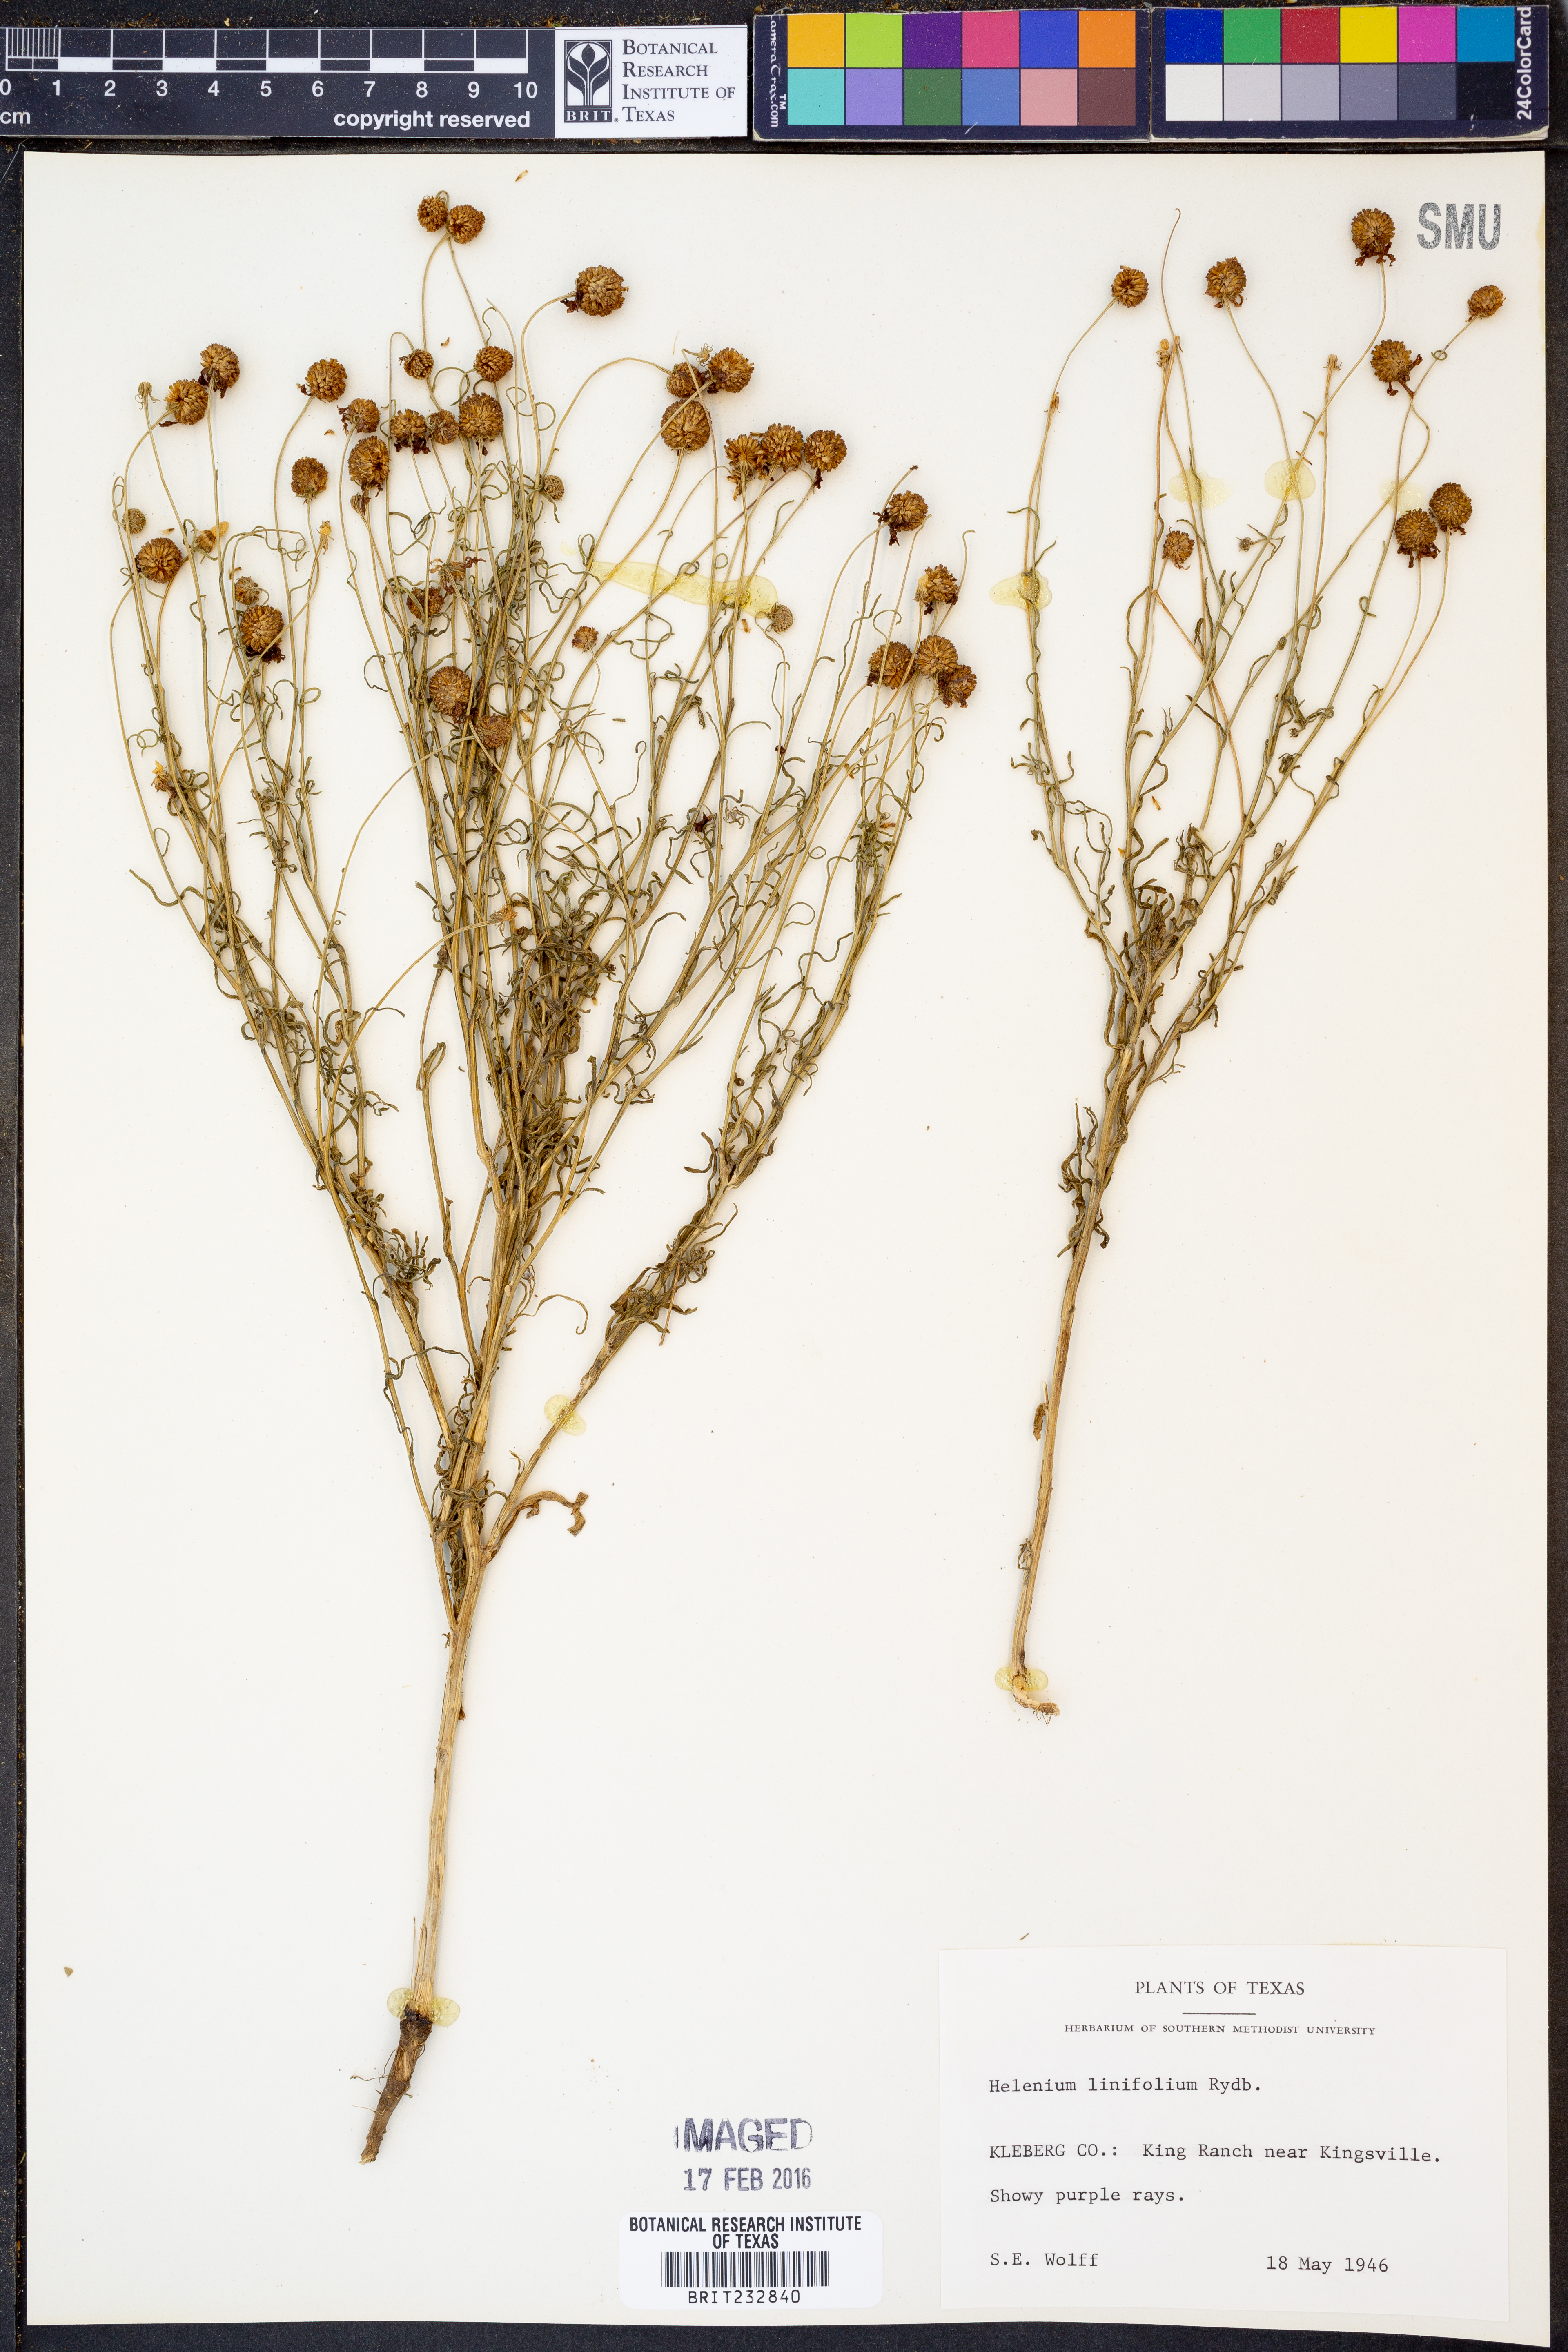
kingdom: Plantae
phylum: Tracheophyta
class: Magnoliopsida
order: Asterales
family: Asteraceae
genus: Helenium
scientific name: Helenium linifolium
